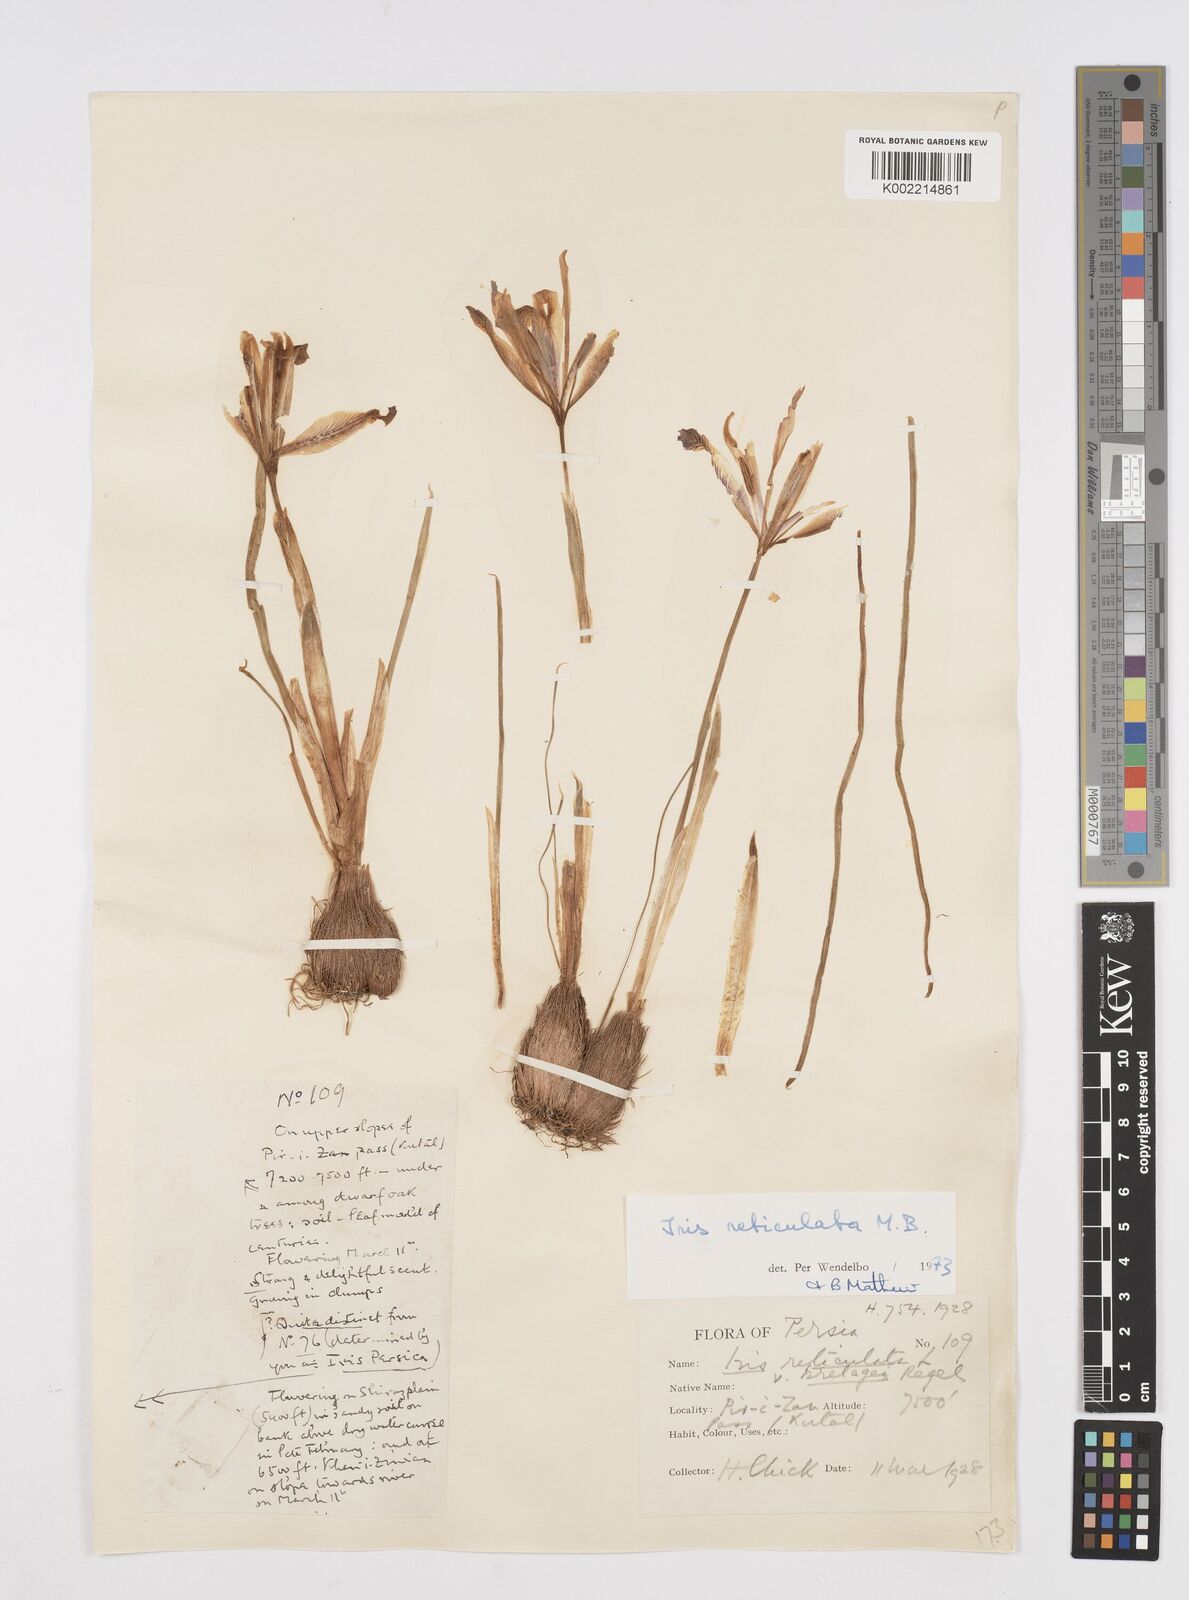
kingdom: Plantae
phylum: Tracheophyta
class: Liliopsida
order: Asparagales
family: Iridaceae
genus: Iris
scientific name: Iris reticulata
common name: Netted iris
